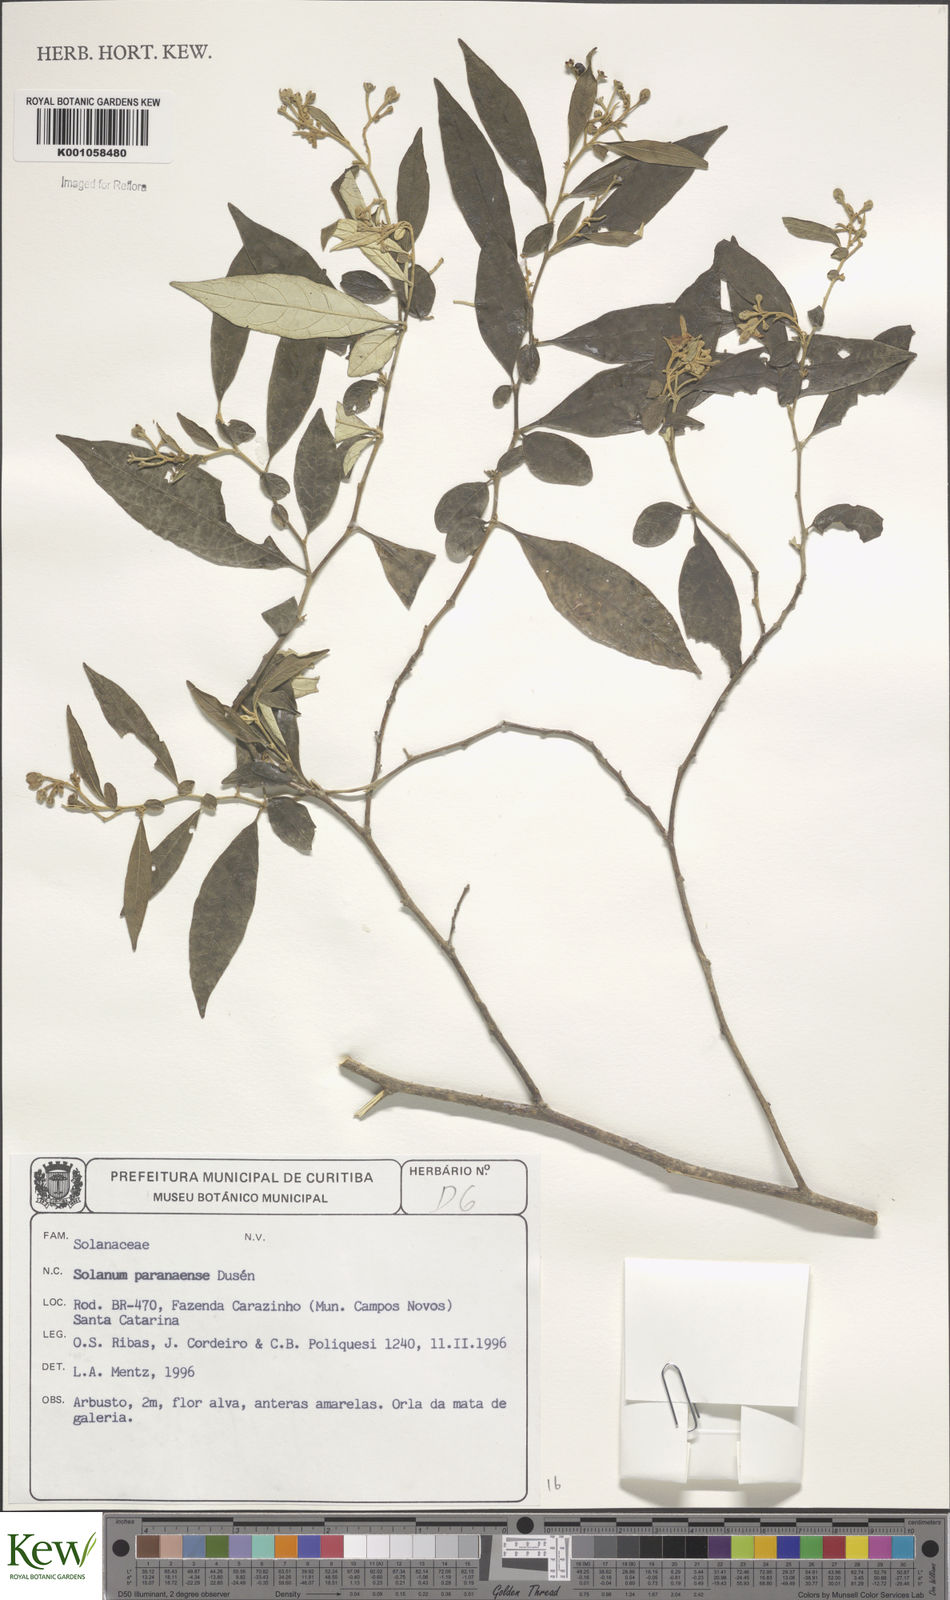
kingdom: Plantae
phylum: Tracheophyta
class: Magnoliopsida
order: Solanales
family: Solanaceae
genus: Solanum
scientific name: Solanum
